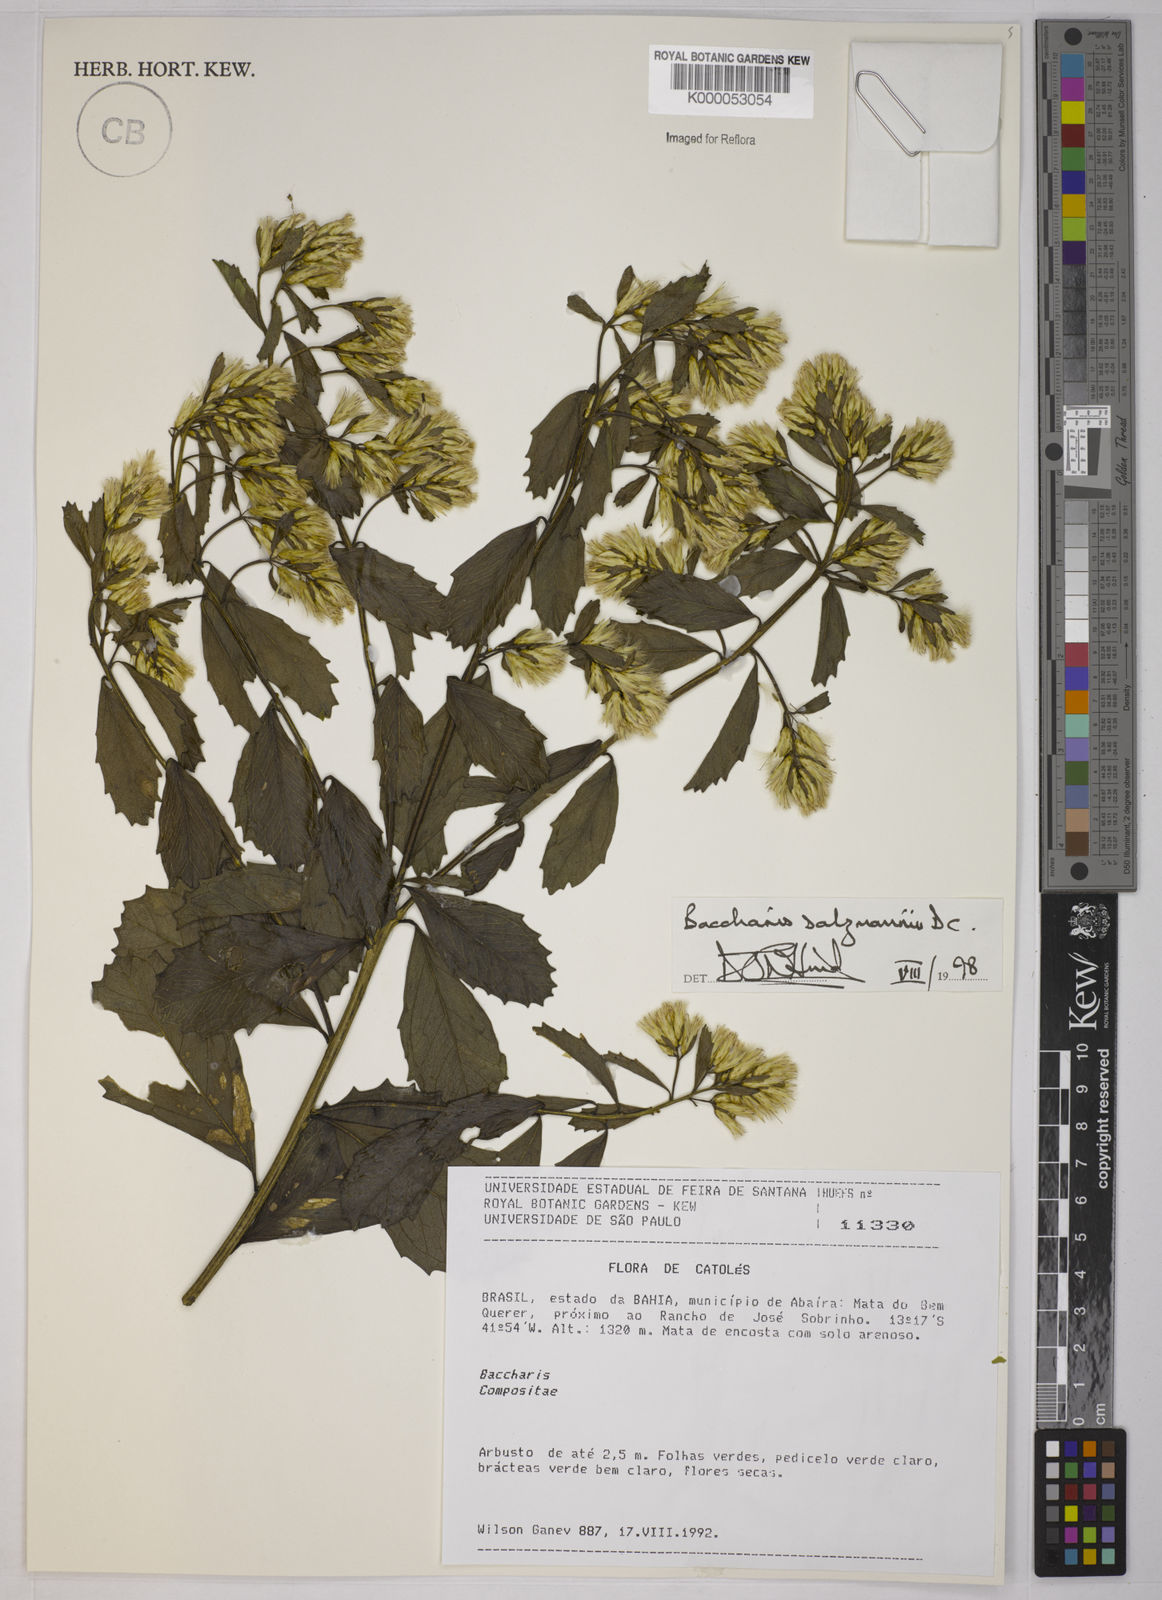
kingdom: Plantae
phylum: Tracheophyta
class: Magnoliopsida
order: Asterales
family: Asteraceae
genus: Baccharis
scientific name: Baccharis retusa
